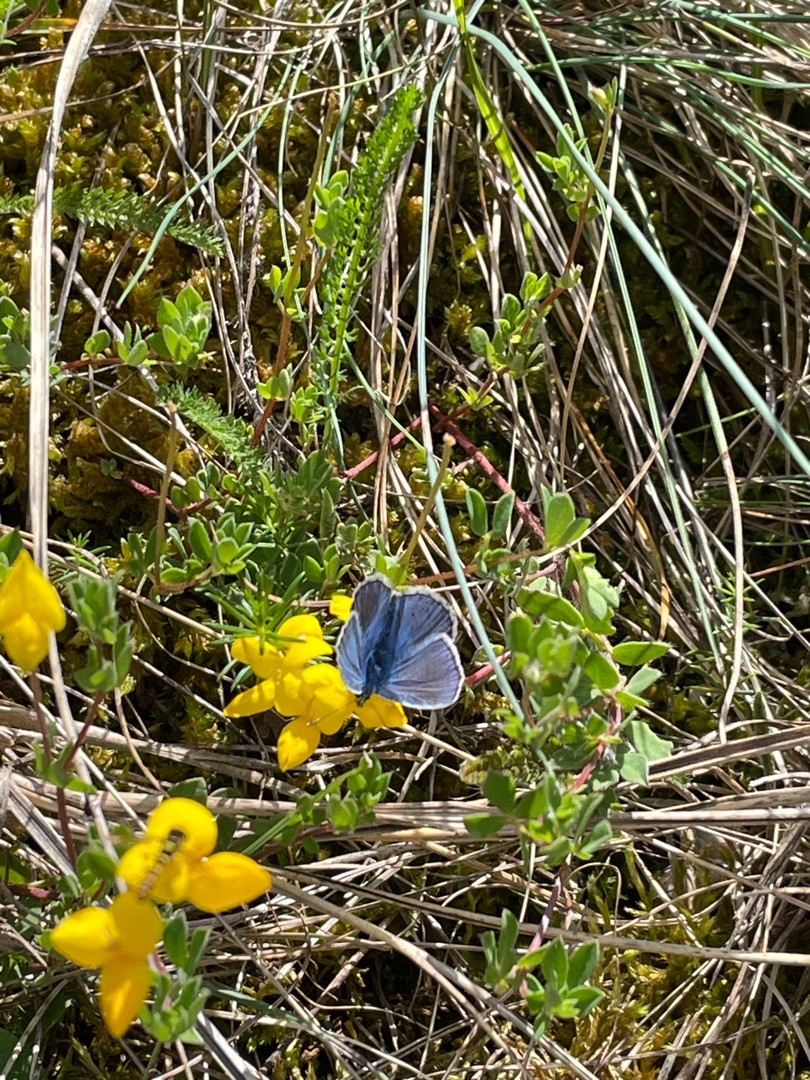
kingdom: Animalia
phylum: Arthropoda
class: Insecta
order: Lepidoptera
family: Lycaenidae
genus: Polyommatus
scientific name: Polyommatus icarus
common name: Almindelig blåfugl
